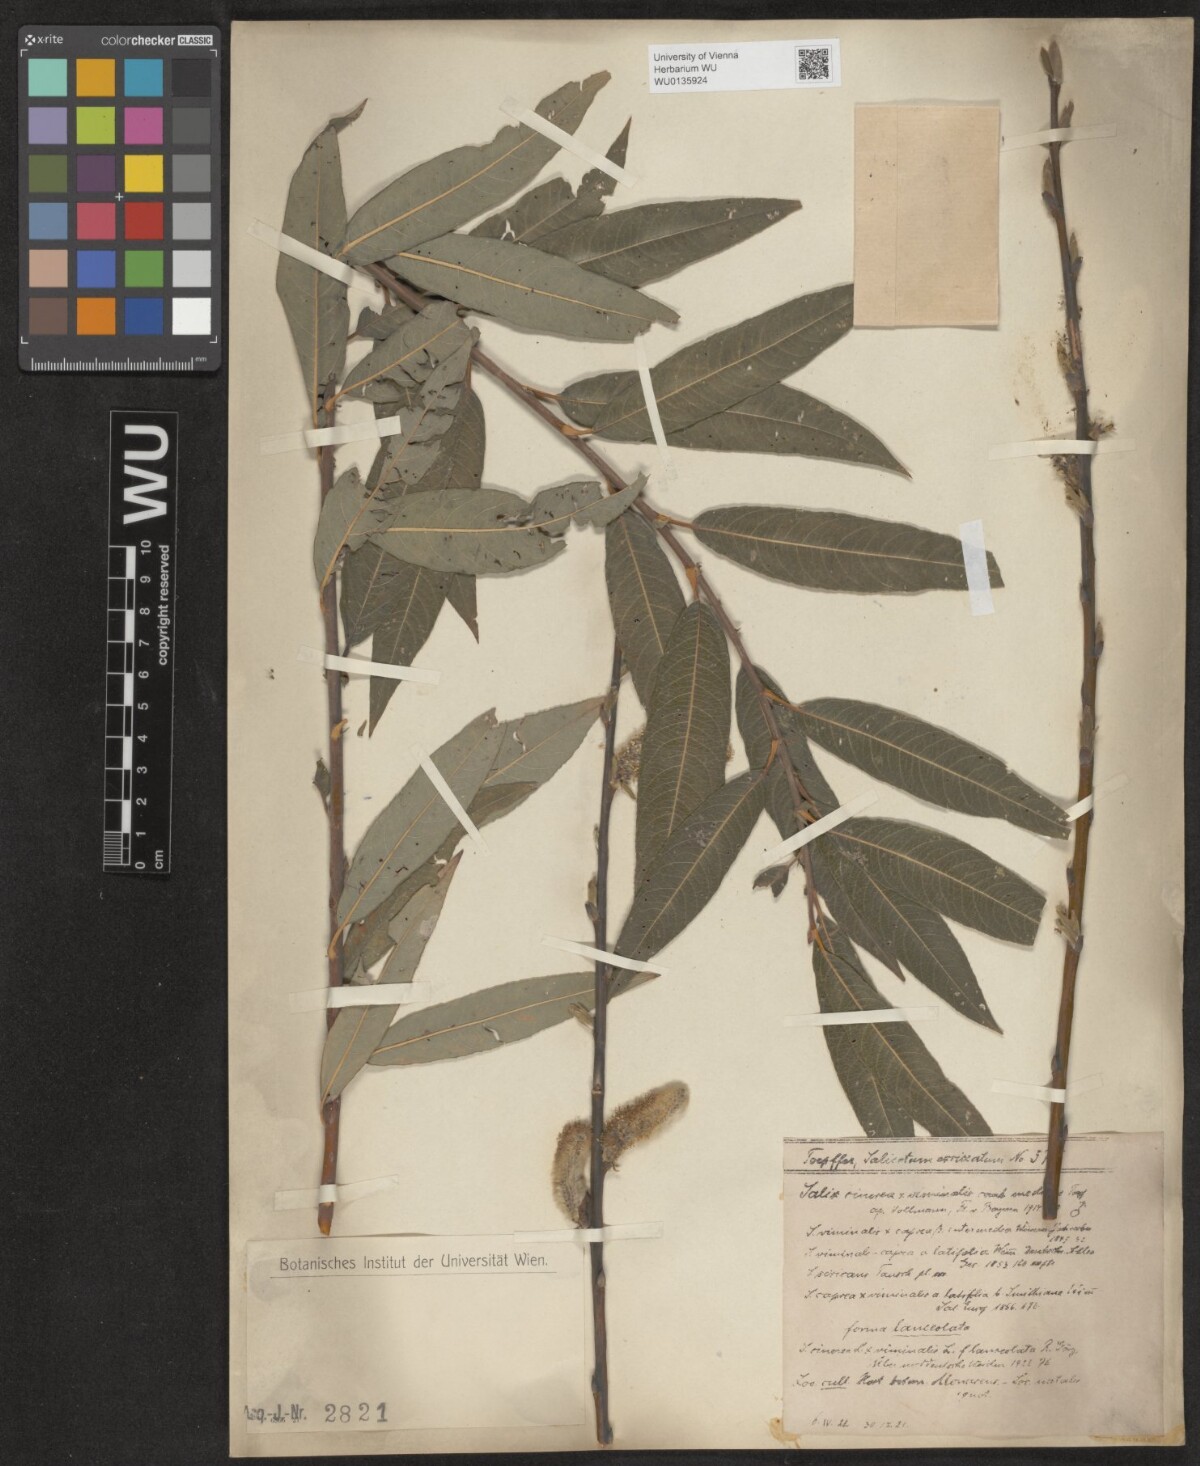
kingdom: Plantae
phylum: Tracheophyta
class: Magnoliopsida
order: Malpighiales
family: Salicaceae
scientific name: Salicaceae
